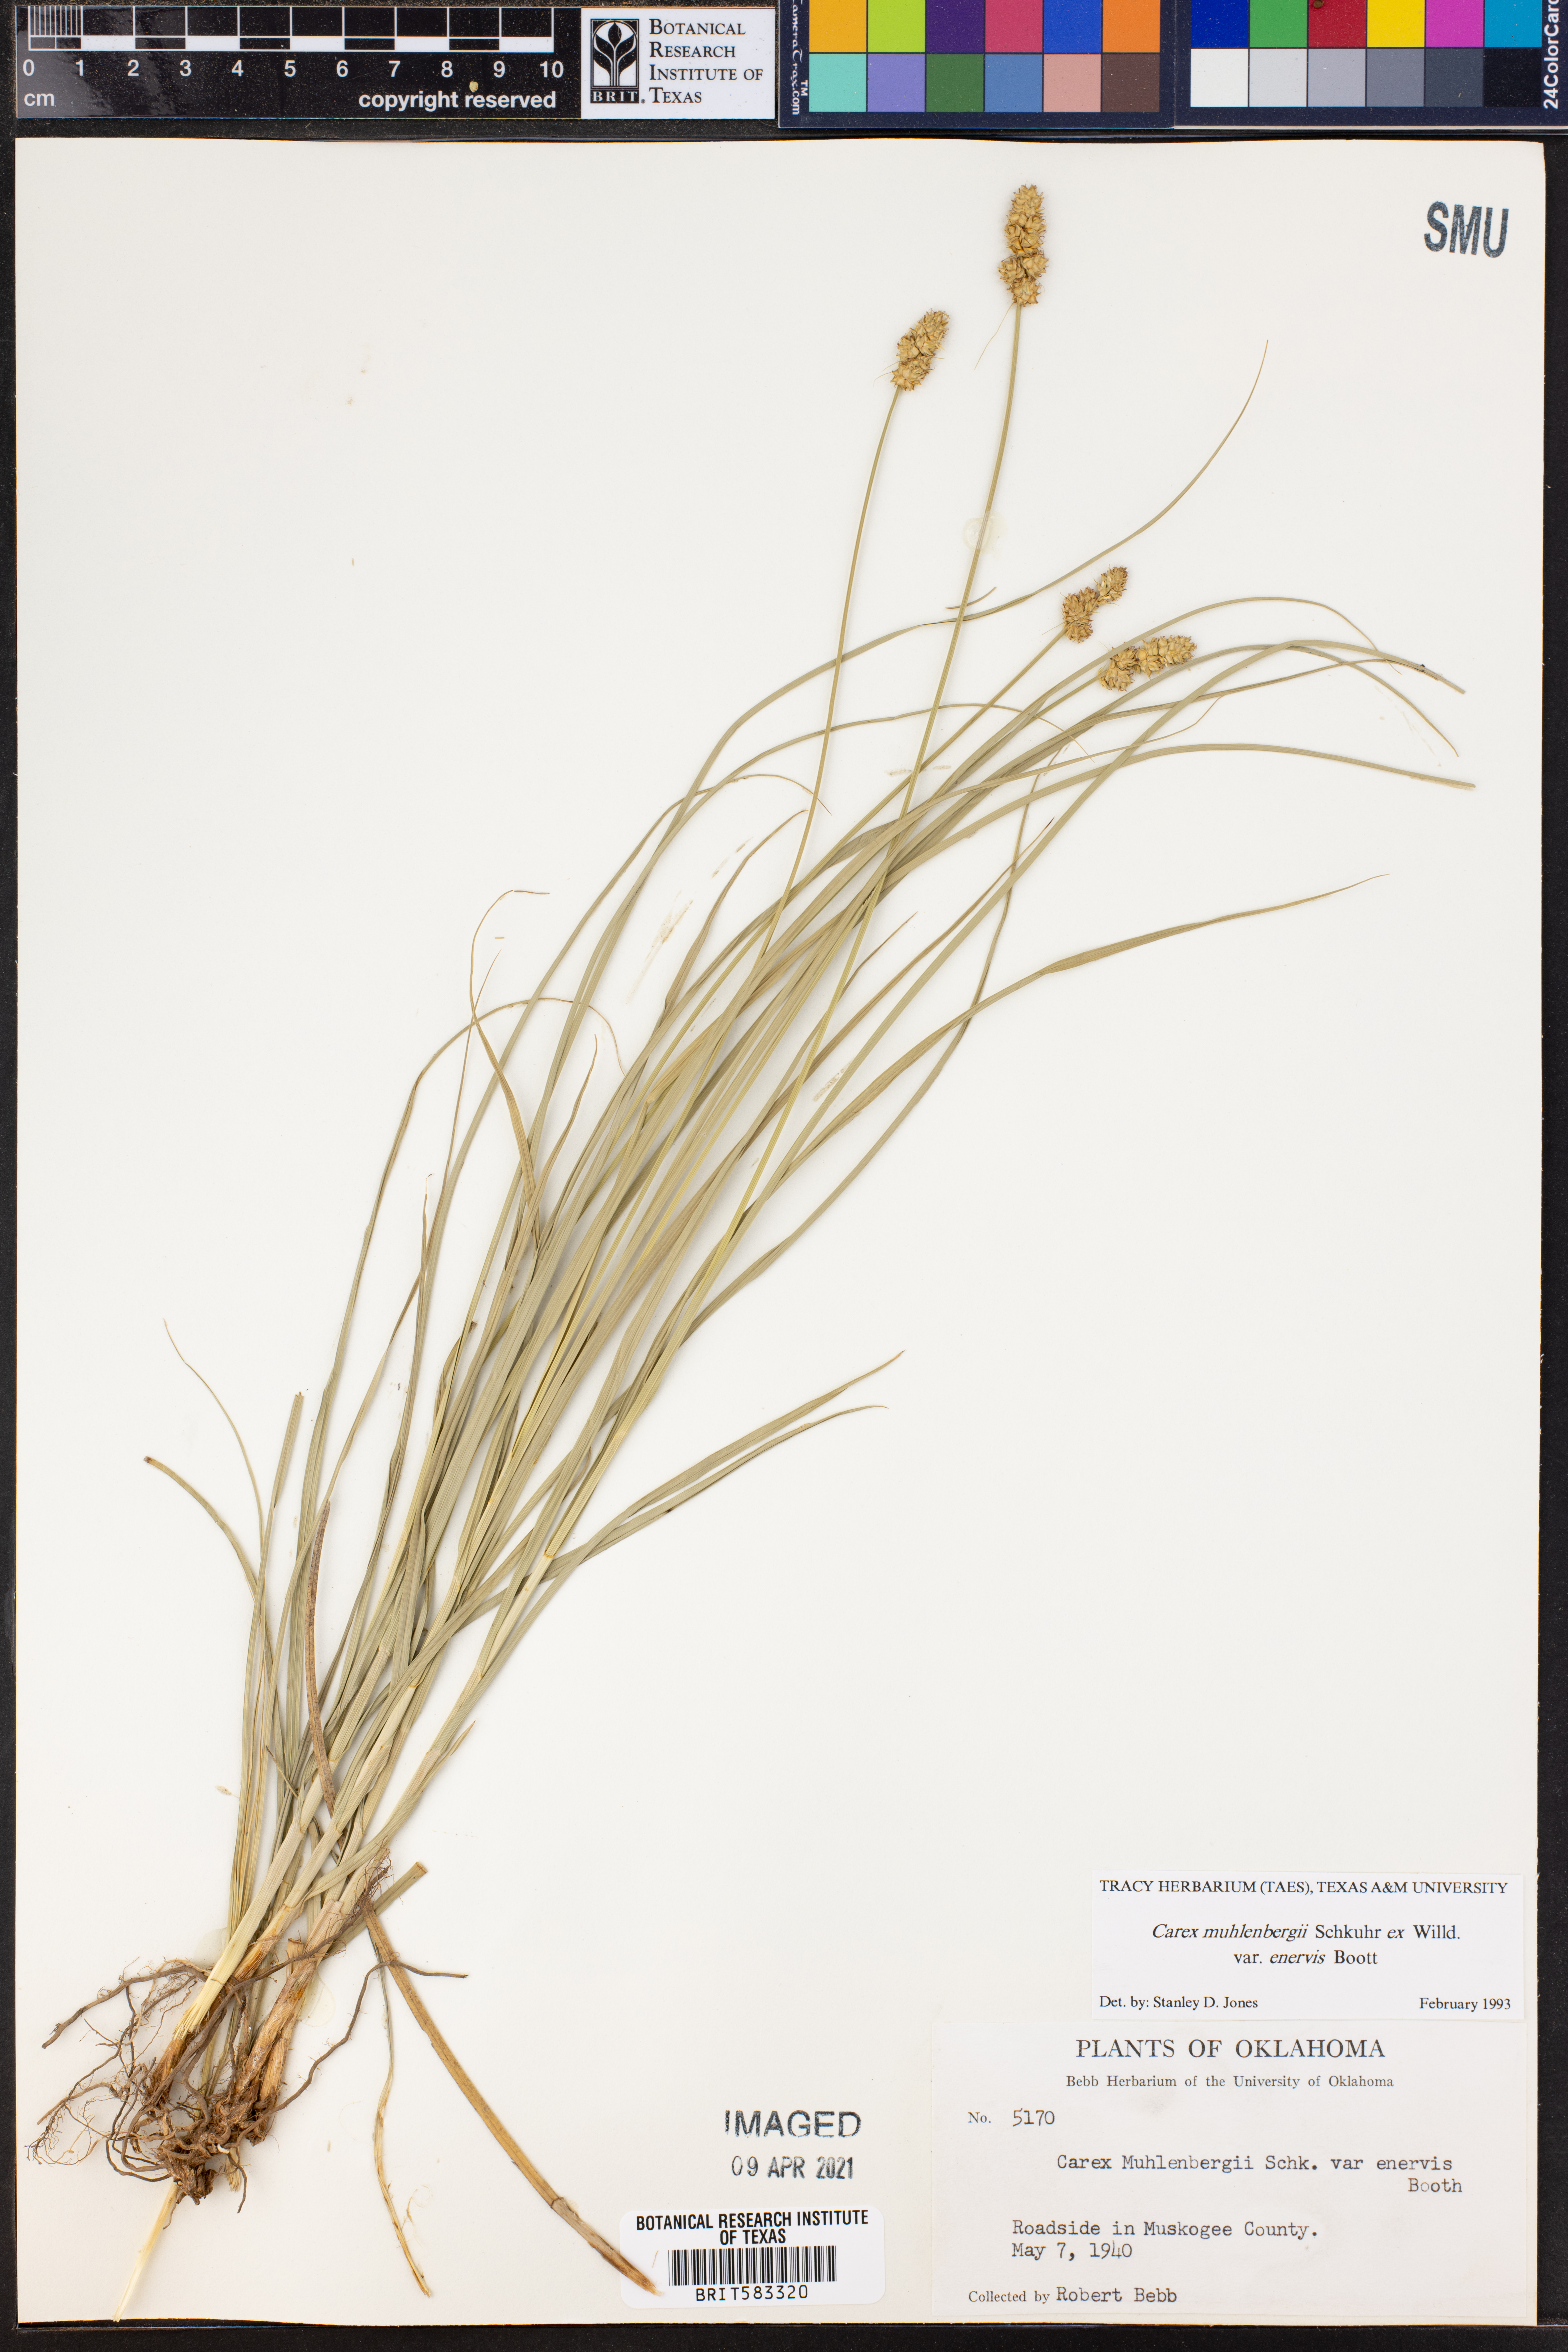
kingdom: Plantae
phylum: Tracheophyta
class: Liliopsida
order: Poales
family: Cyperaceae
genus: Carex
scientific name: Carex vulpinoidea
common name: American fox-sedge
